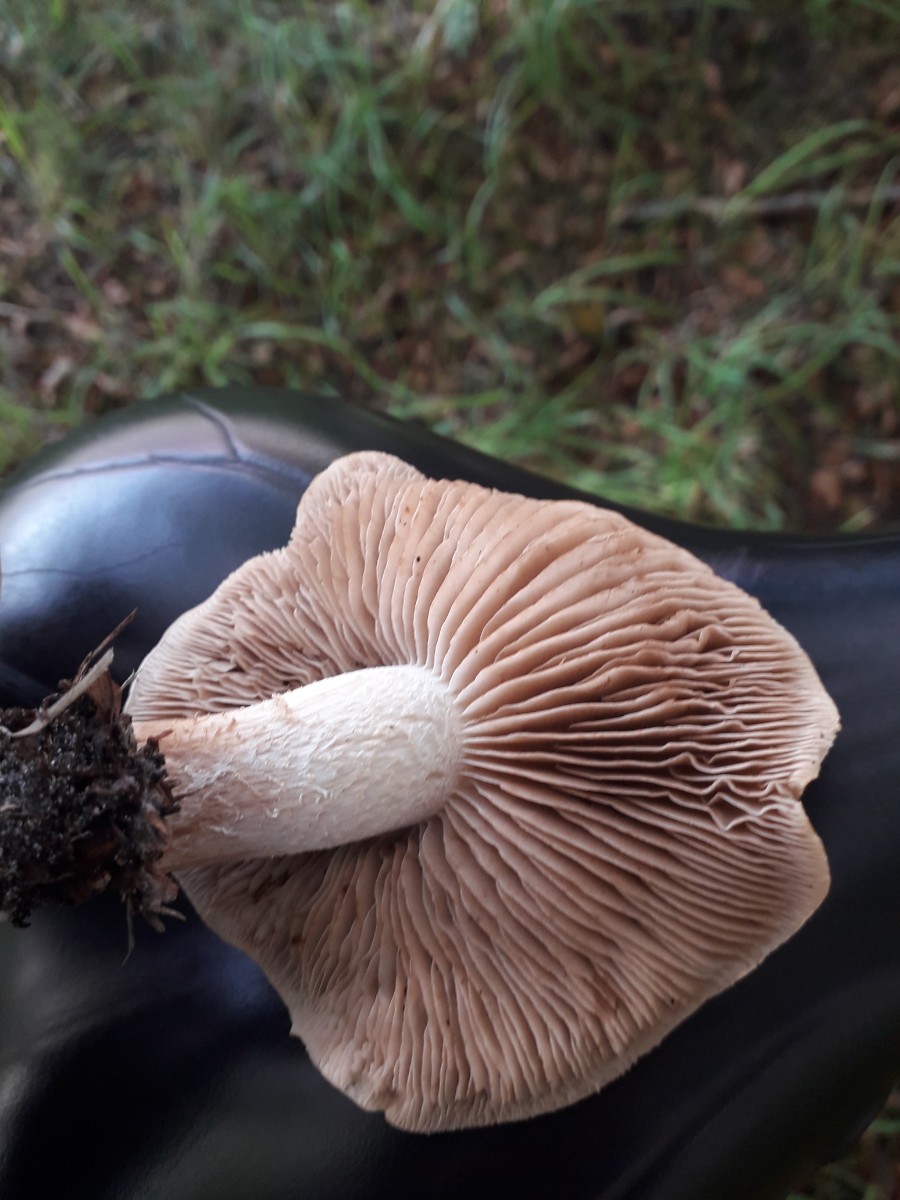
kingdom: Fungi
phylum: Basidiomycota
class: Agaricomycetes
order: Agaricales
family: Hymenogastraceae
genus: Hebeloma
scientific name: Hebeloma
